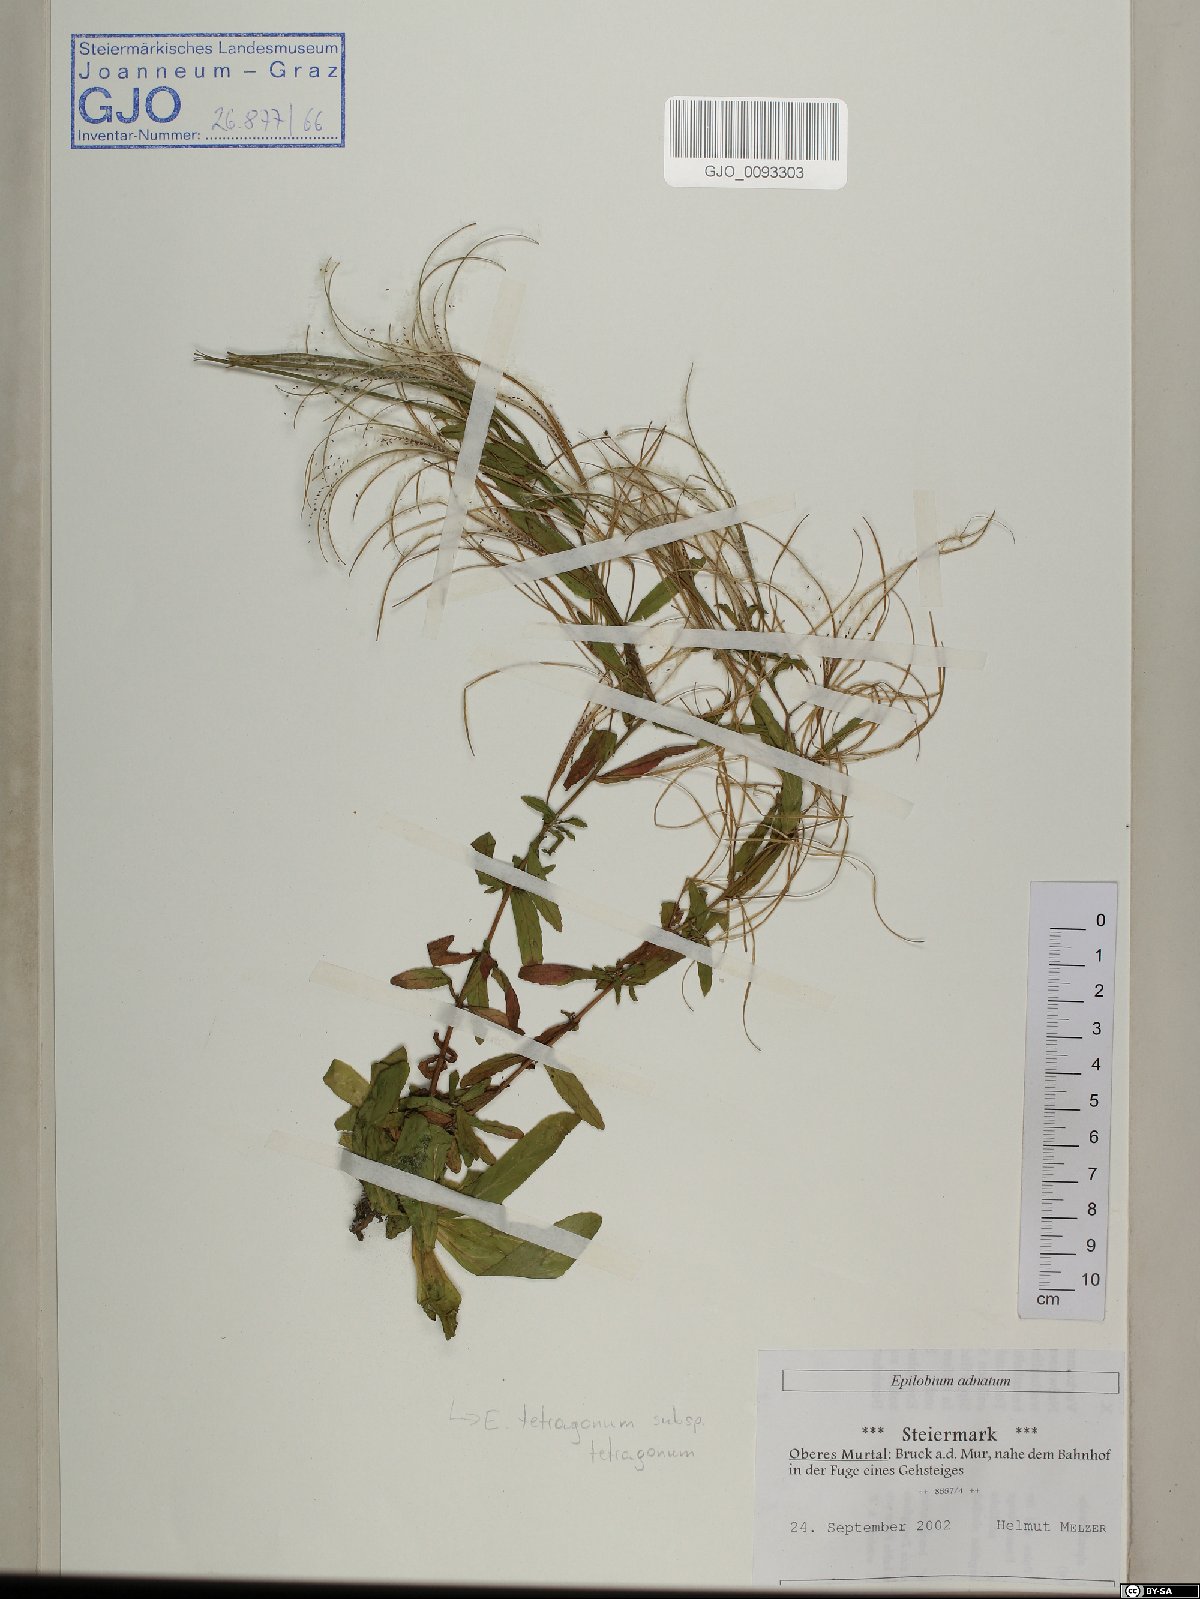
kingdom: Plantae
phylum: Tracheophyta
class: Magnoliopsida
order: Myrtales
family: Onagraceae
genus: Epilobium
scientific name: Epilobium tetragonum
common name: Square-stemmed willowherb
